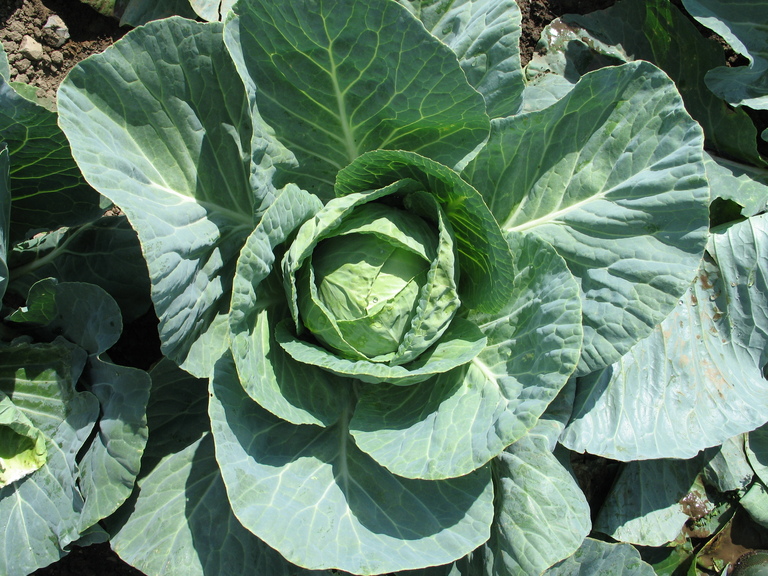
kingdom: Plantae
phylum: Tracheophyta
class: Magnoliopsida
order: Brassicales
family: Brassicaceae
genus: Brassica
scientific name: Brassica oleracea
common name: Cabbage
